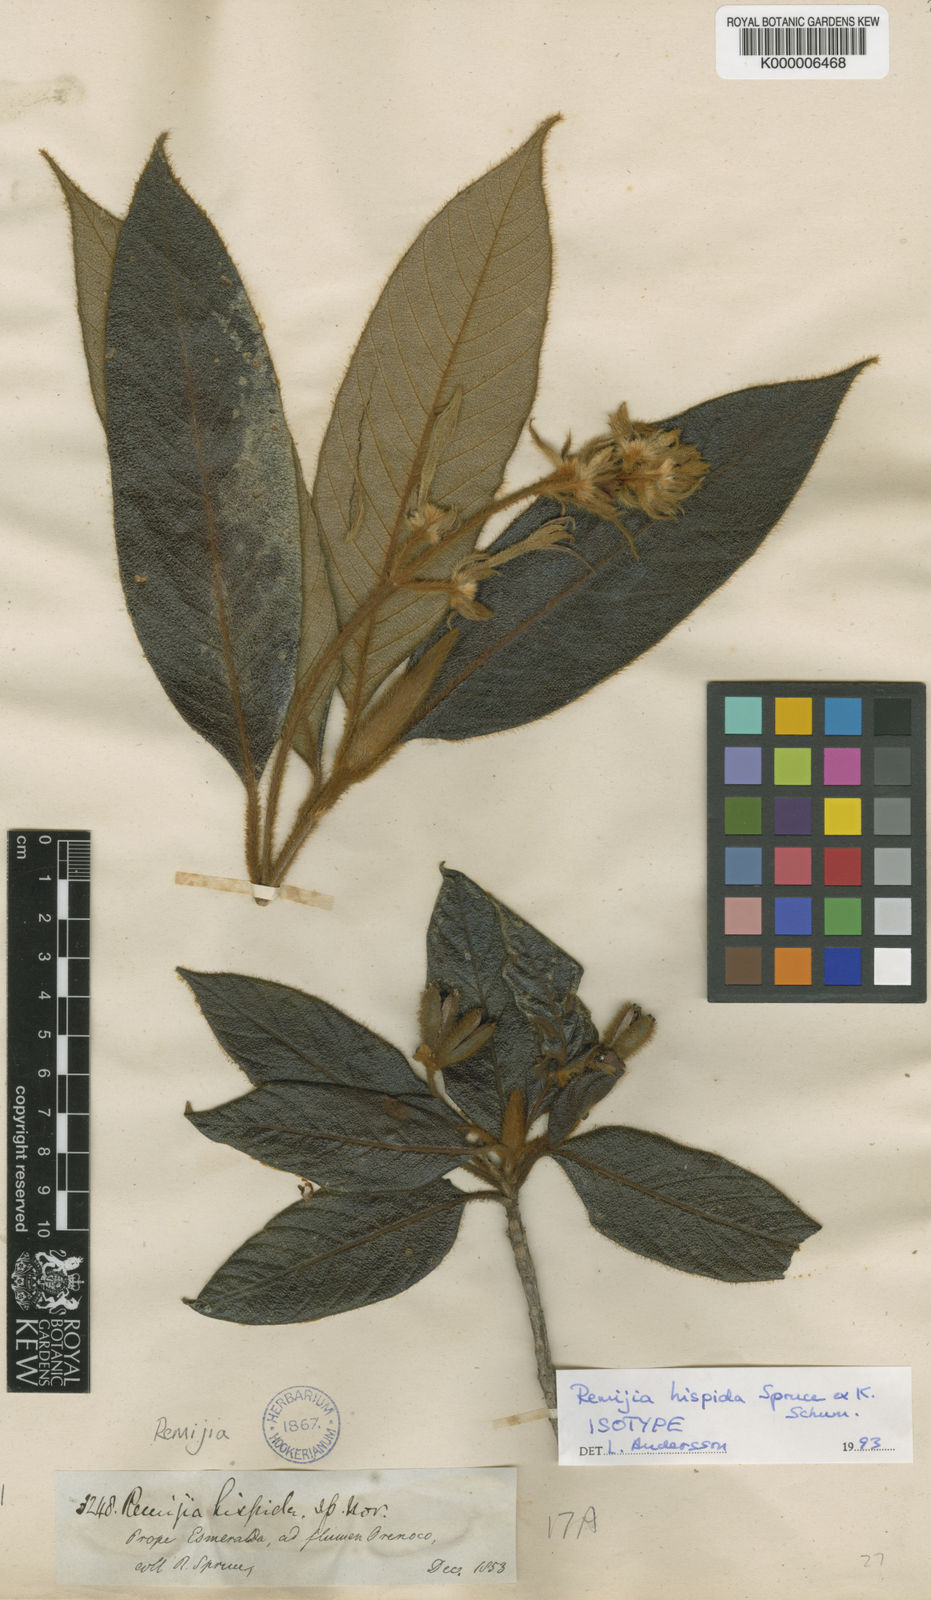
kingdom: Plantae
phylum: Tracheophyta
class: Magnoliopsida
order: Gentianales
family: Rubiaceae
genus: Remijia
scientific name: Remijia hispida
